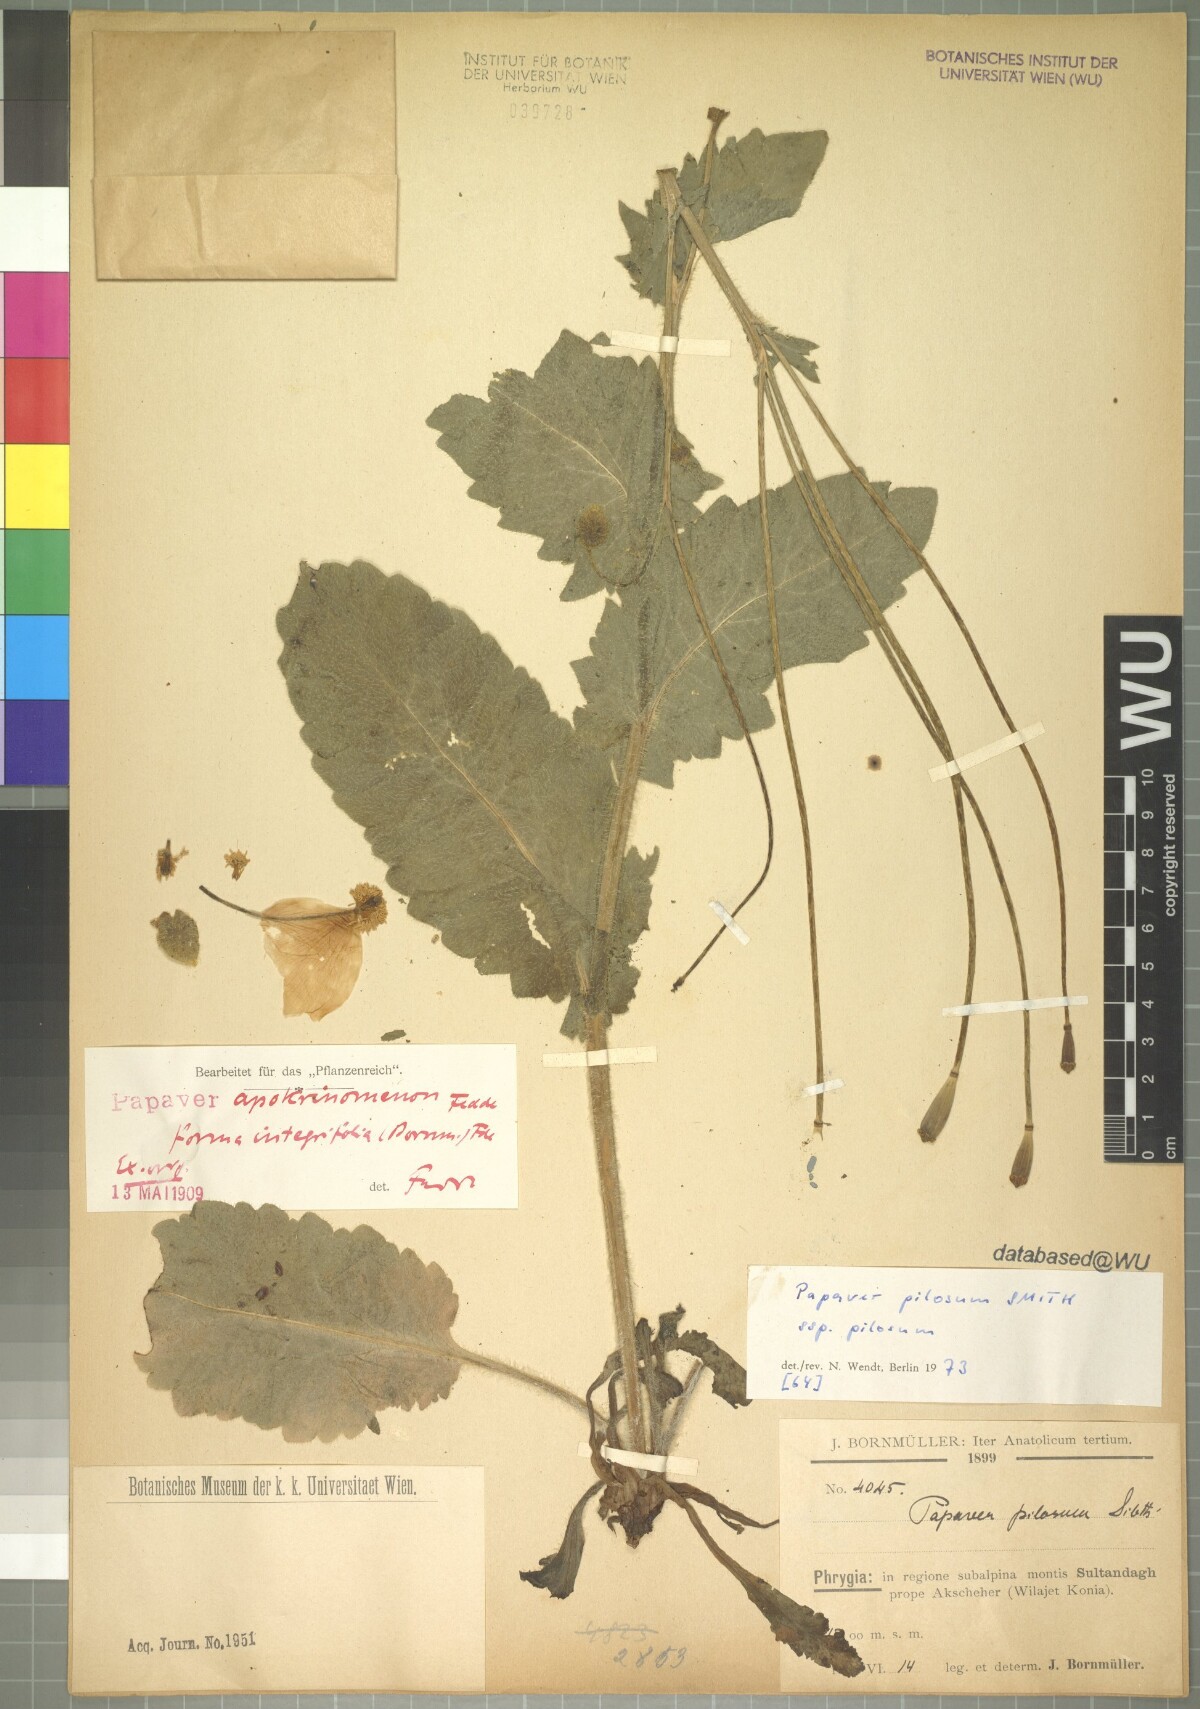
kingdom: Plantae
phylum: Tracheophyta
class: Magnoliopsida
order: Ranunculales
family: Papaveraceae
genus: Papaver
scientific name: Papaver pilosum
